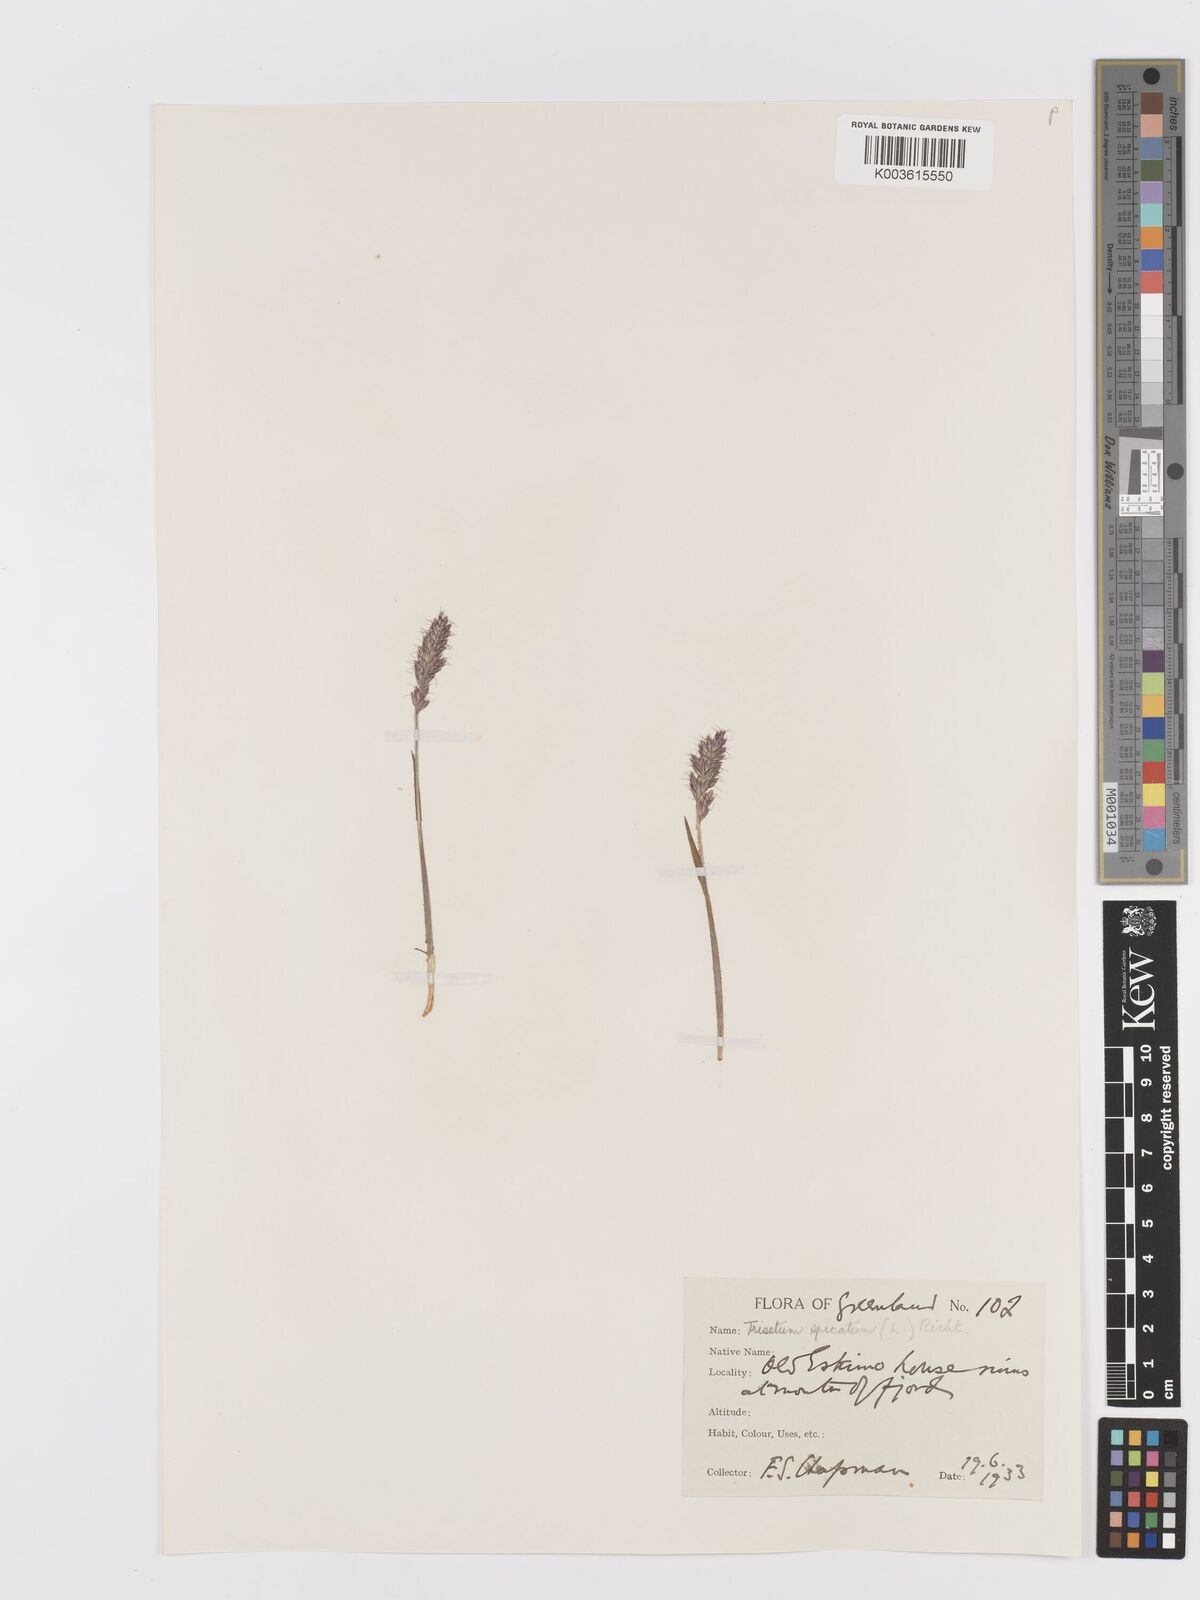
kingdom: Plantae
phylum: Tracheophyta
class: Liliopsida
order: Poales
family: Poaceae
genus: Koeleria
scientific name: Koeleria spicata
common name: Mountain trisetum
